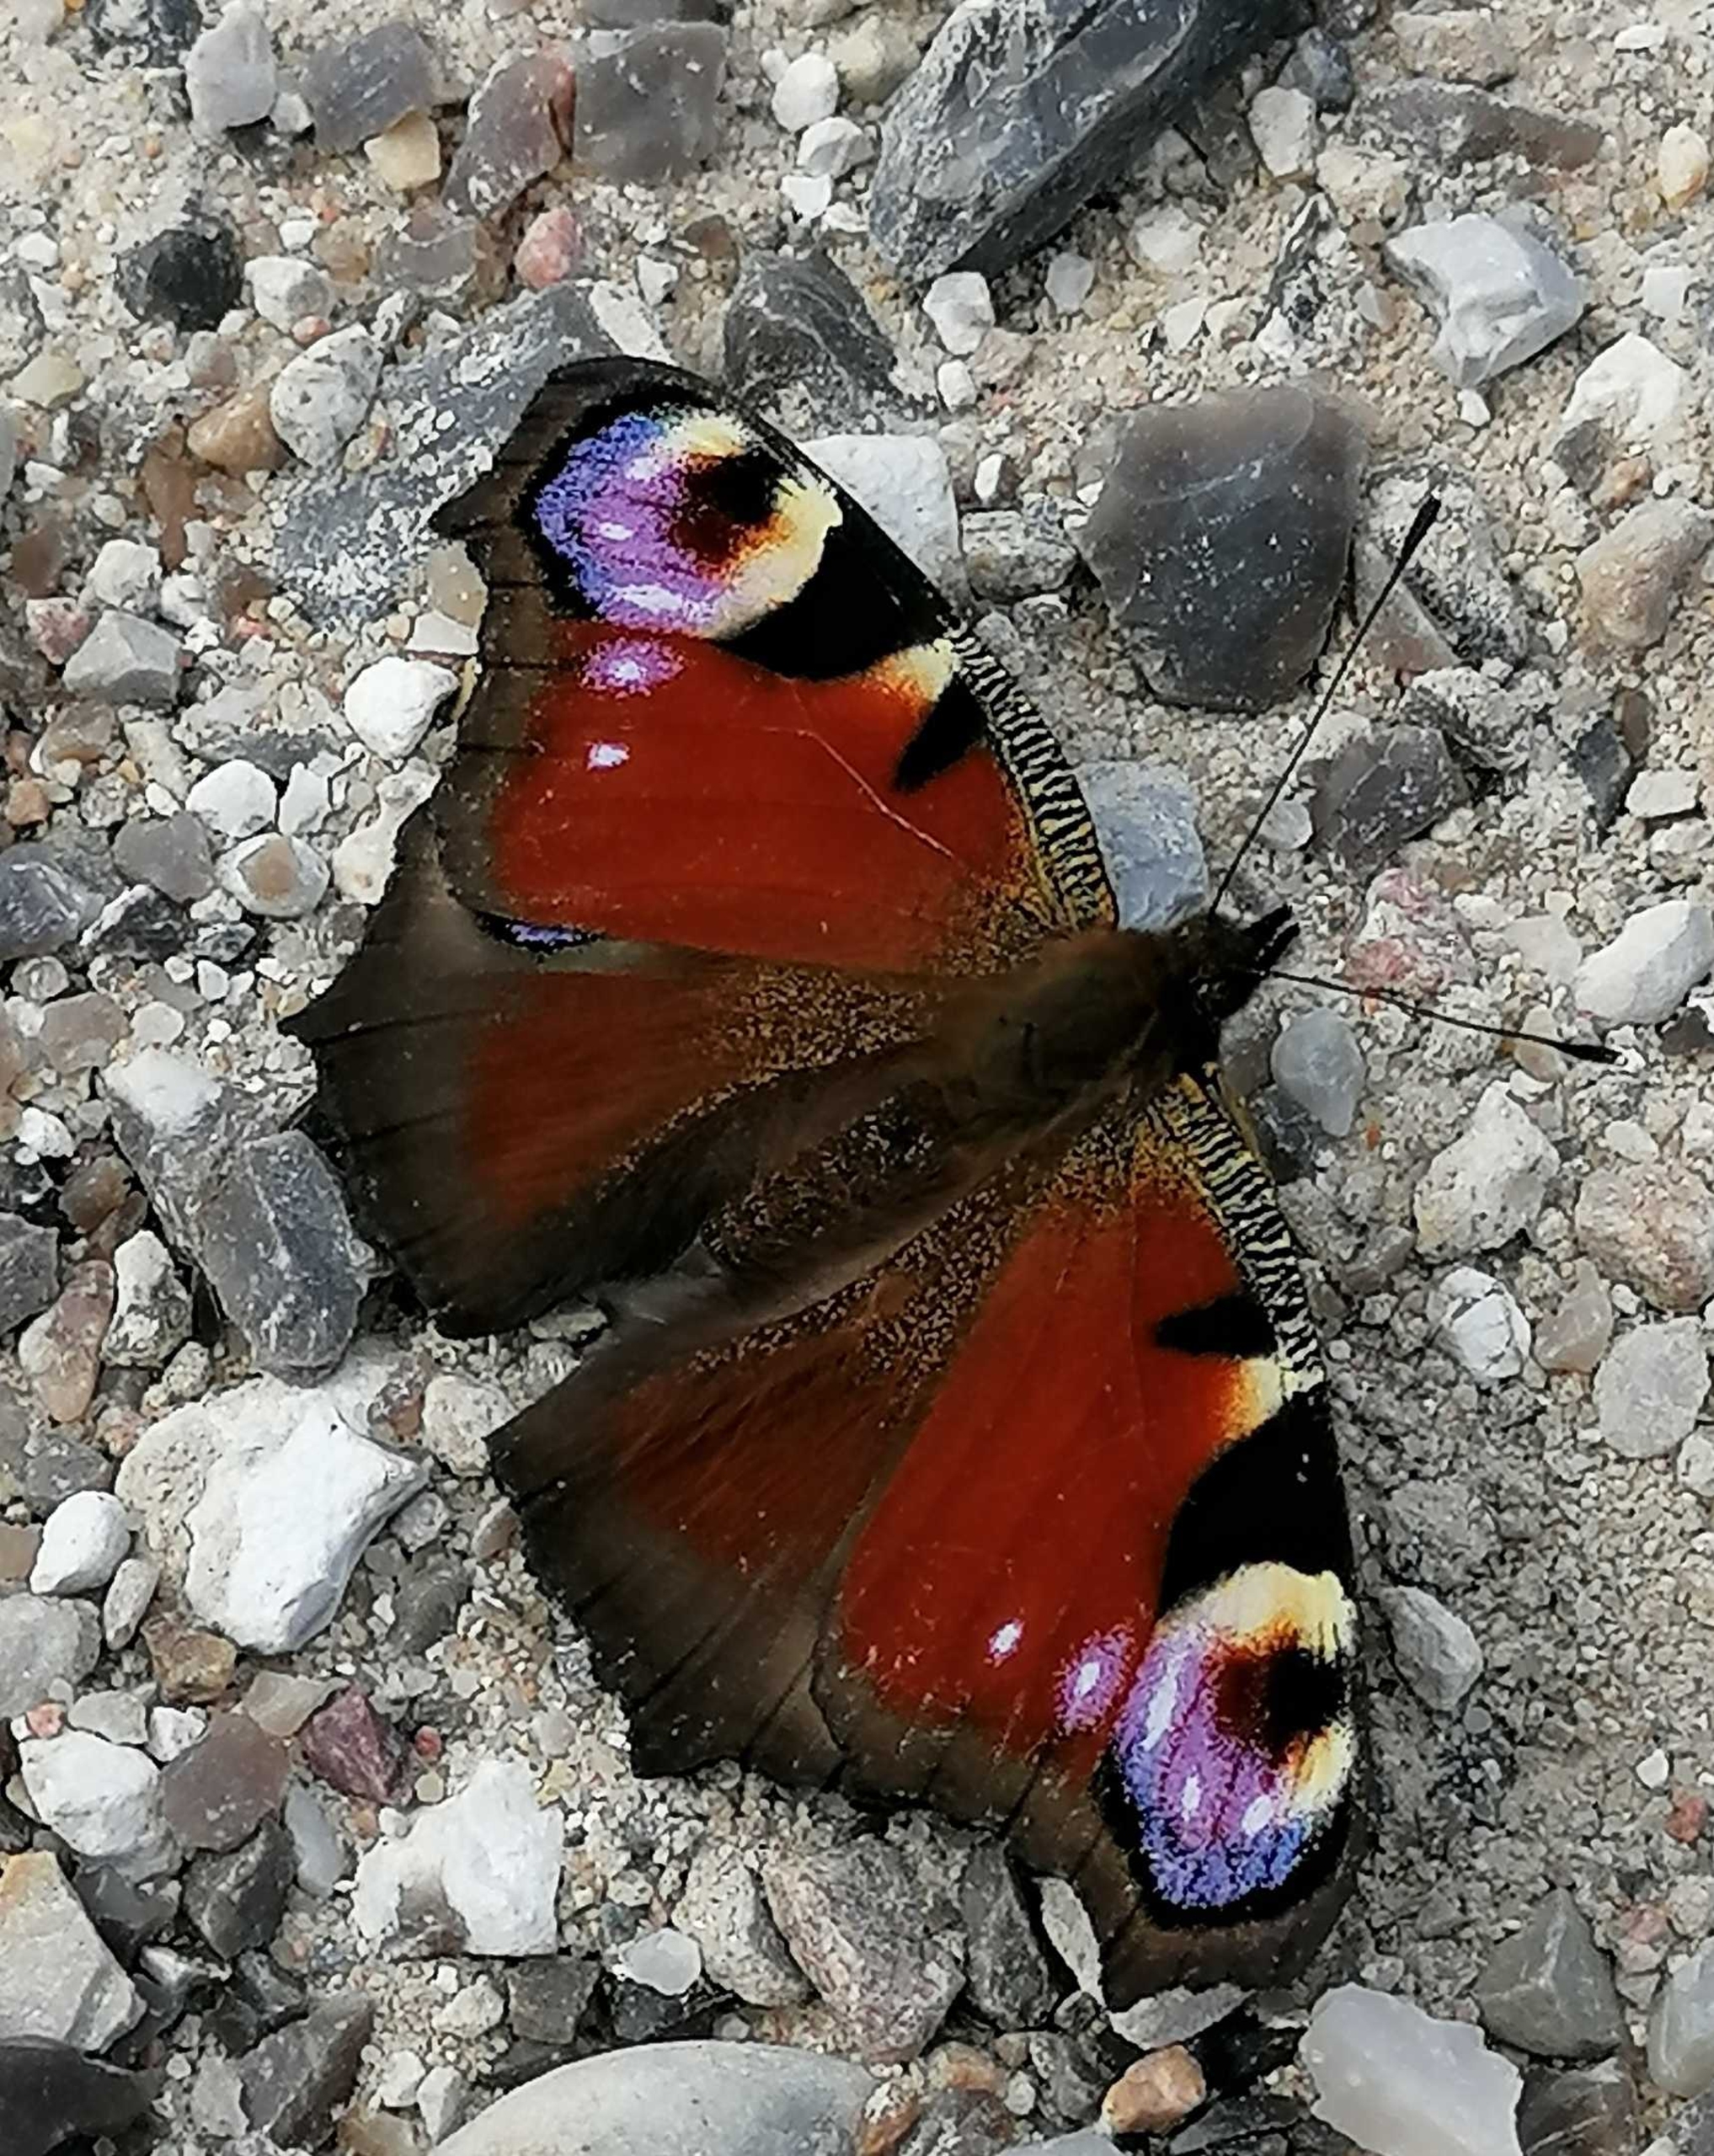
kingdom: Animalia
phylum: Arthropoda
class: Insecta
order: Lepidoptera
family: Nymphalidae
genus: Aglais
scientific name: Aglais io
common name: Dagpåfugleøje
